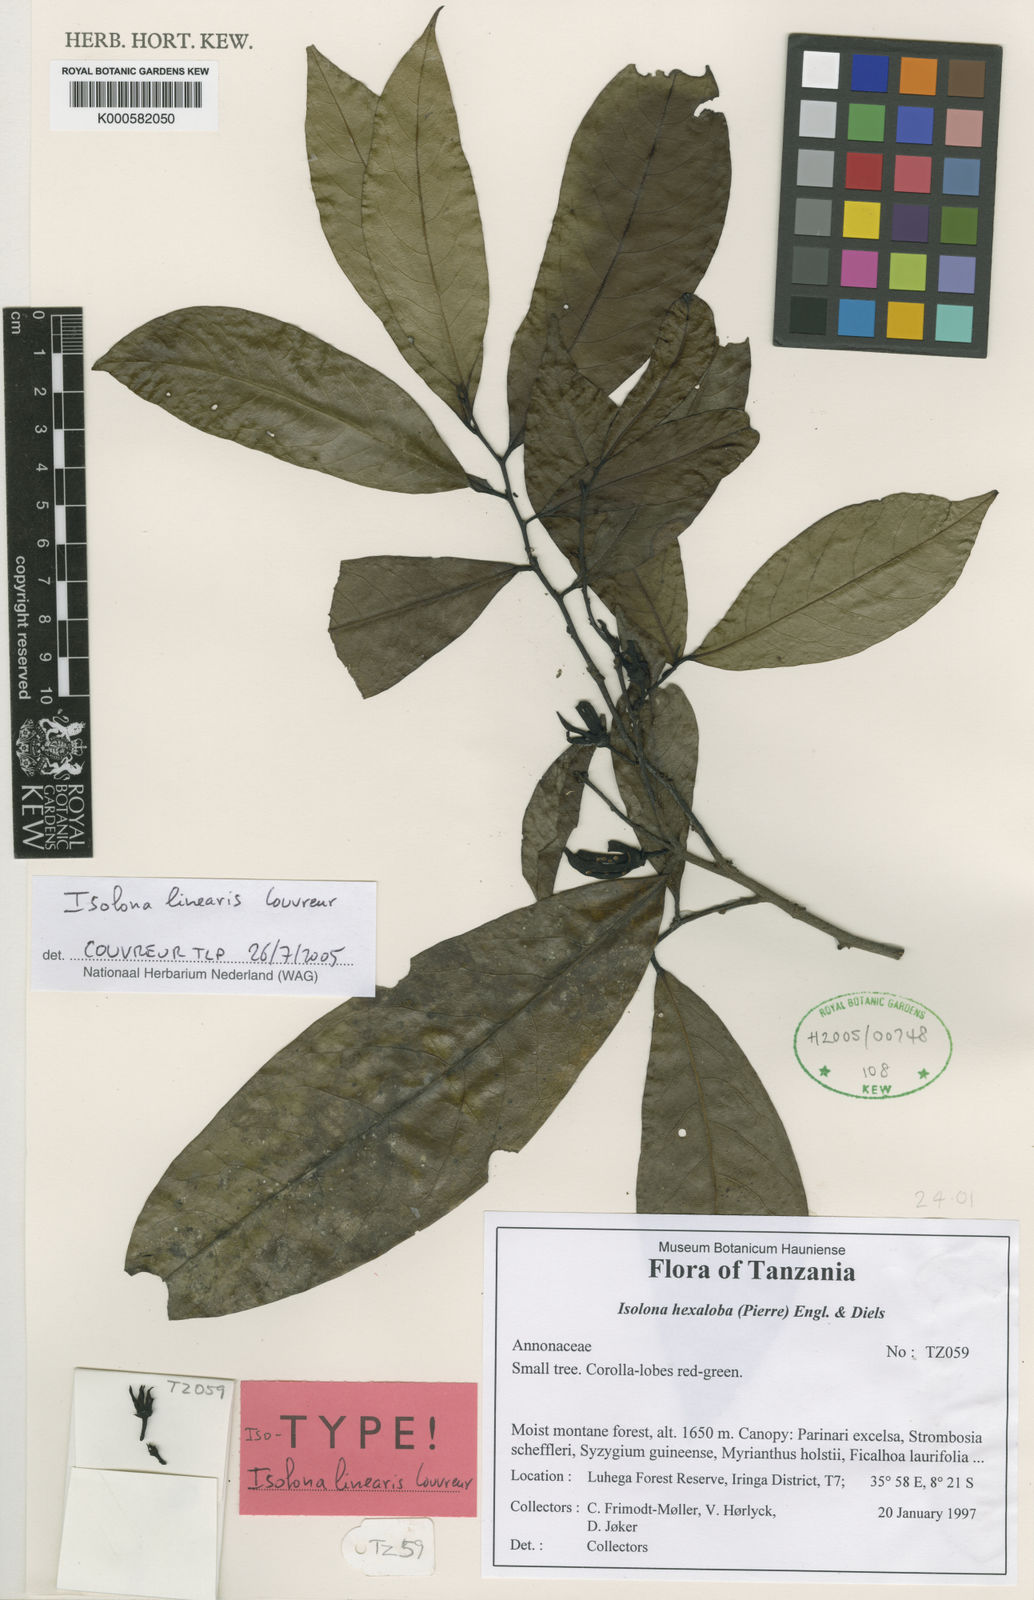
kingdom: Plantae
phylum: Tracheophyta
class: Magnoliopsida
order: Magnoliales
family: Annonaceae
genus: Isolona
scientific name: Isolona linearis
